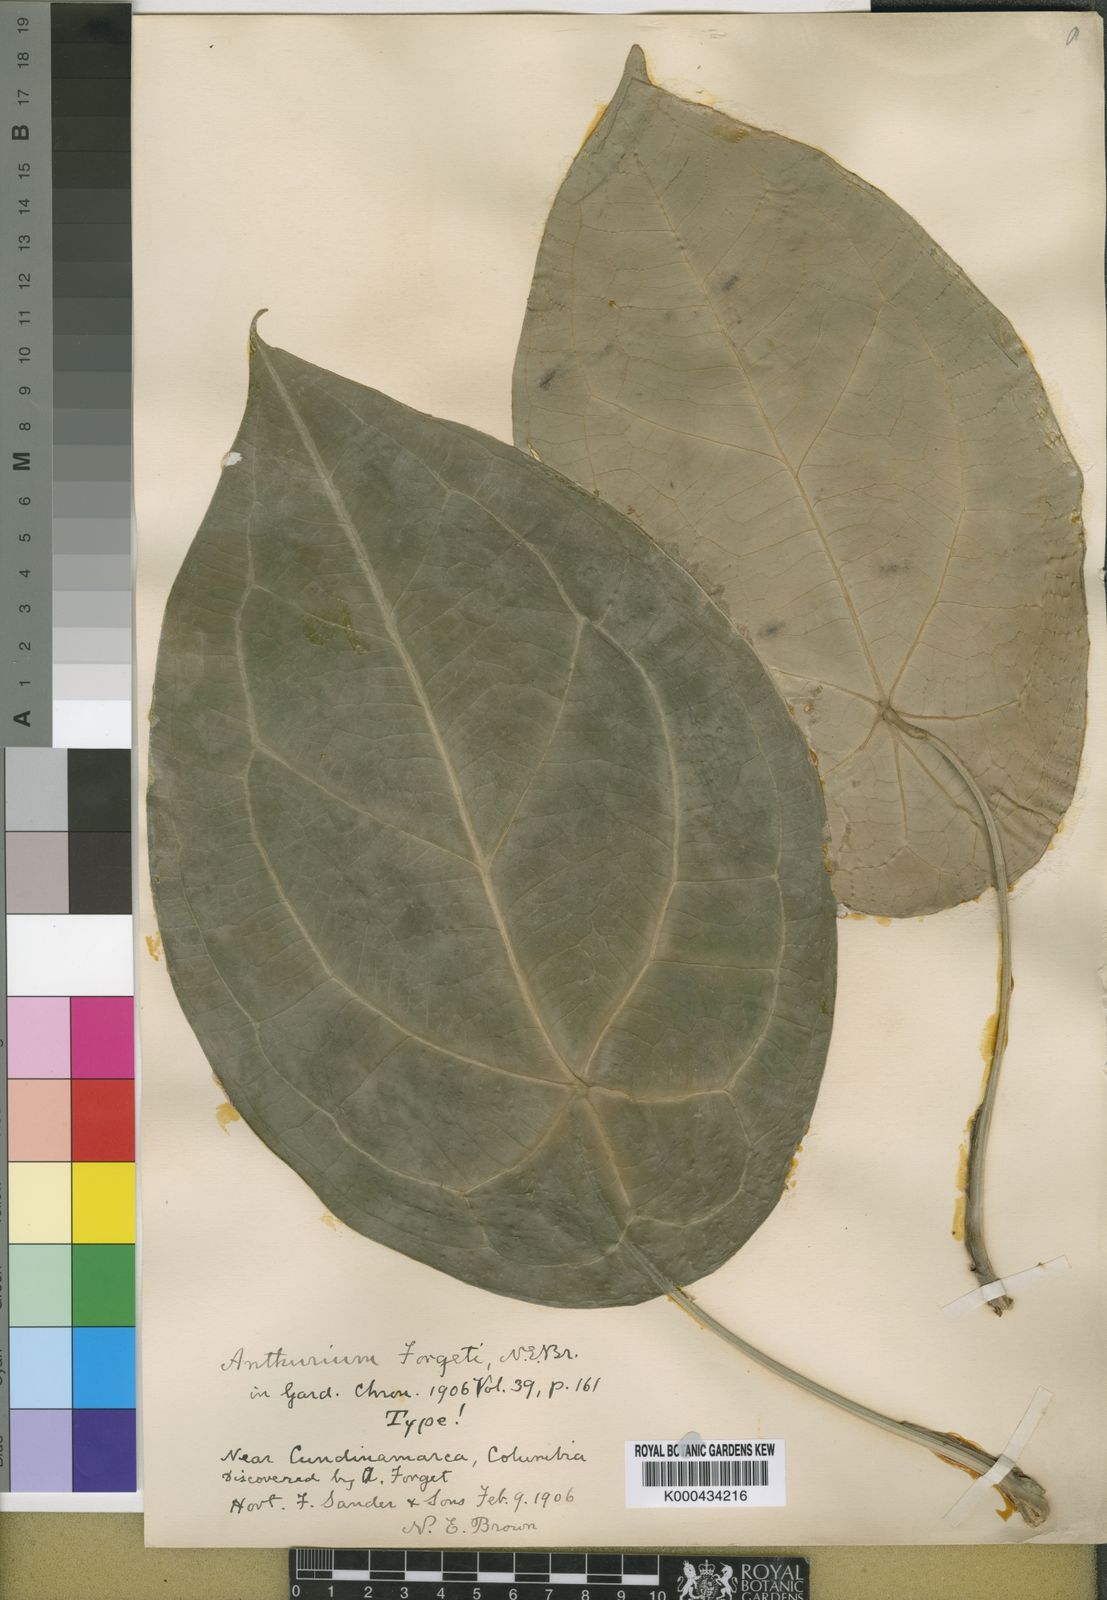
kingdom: Plantae
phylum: Tracheophyta
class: Liliopsida
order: Alismatales
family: Araceae
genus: Anthurium
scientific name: Anthurium forgetii
